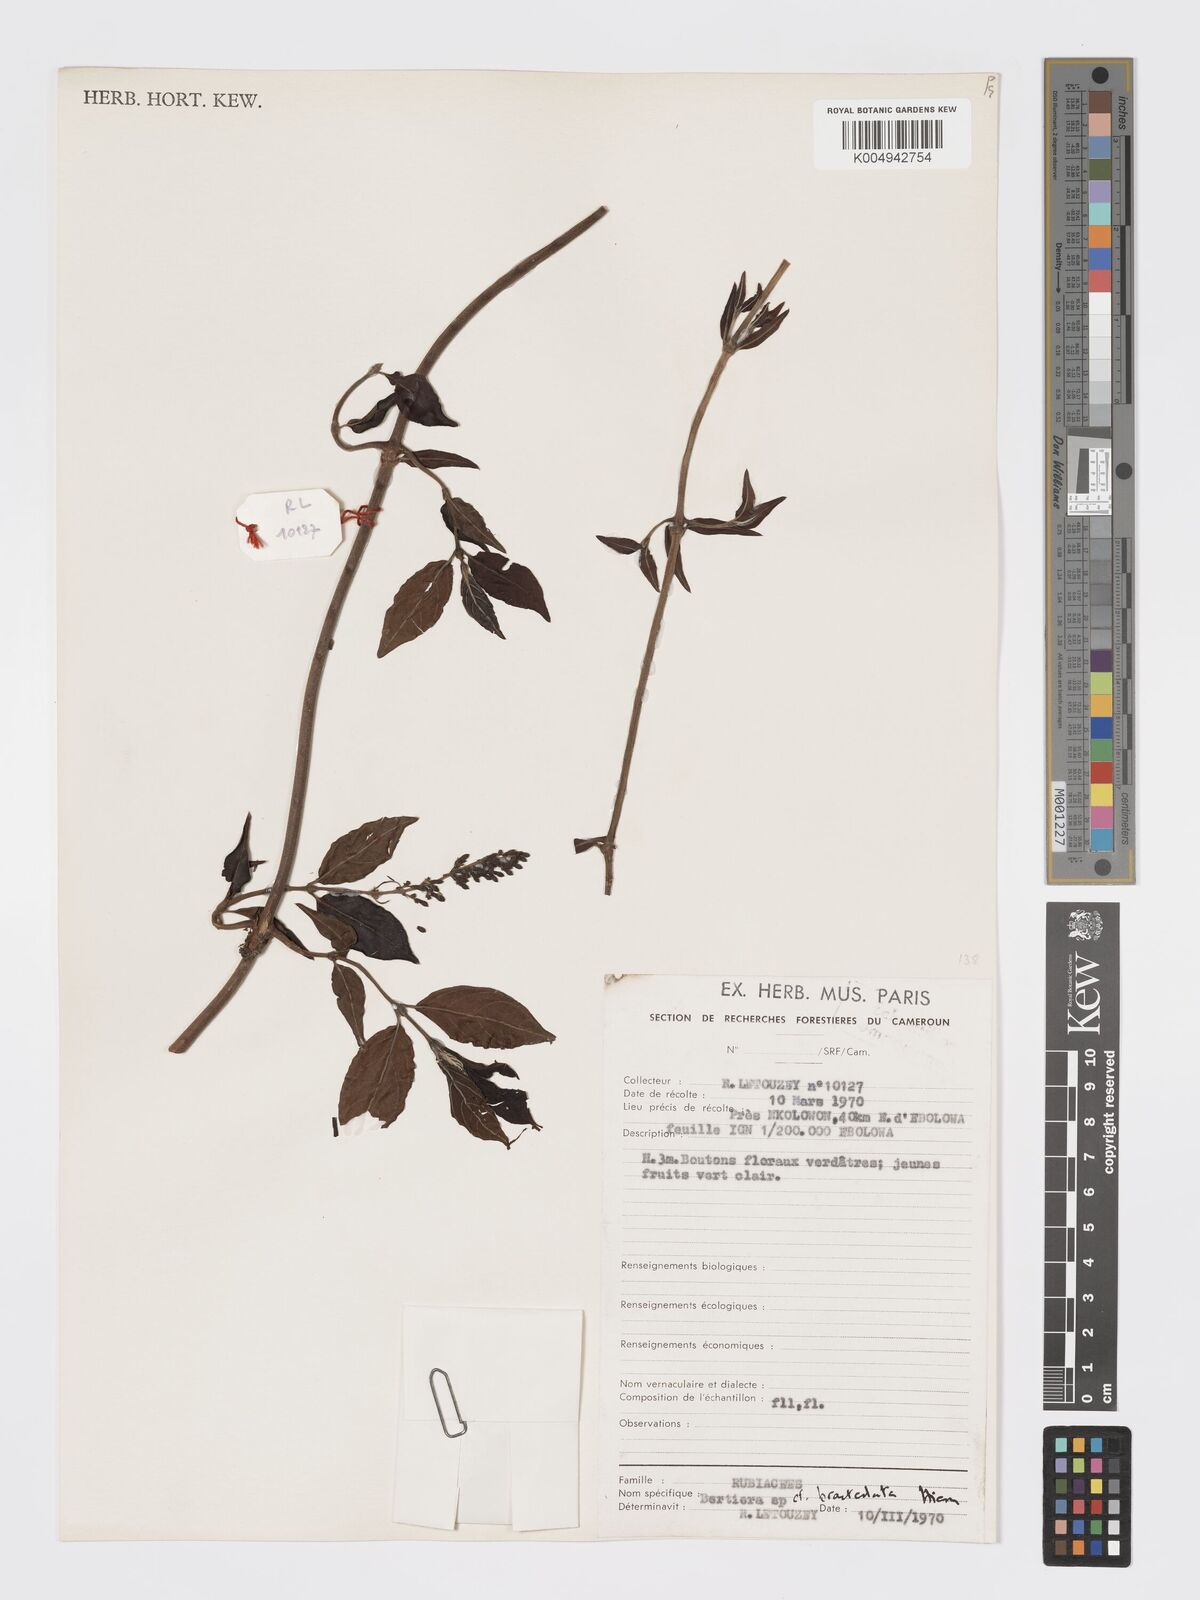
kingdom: Plantae
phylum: Tracheophyta
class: Magnoliopsida
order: Gentianales
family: Rubiaceae
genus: Bertiera
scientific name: Bertiera bracteolata
